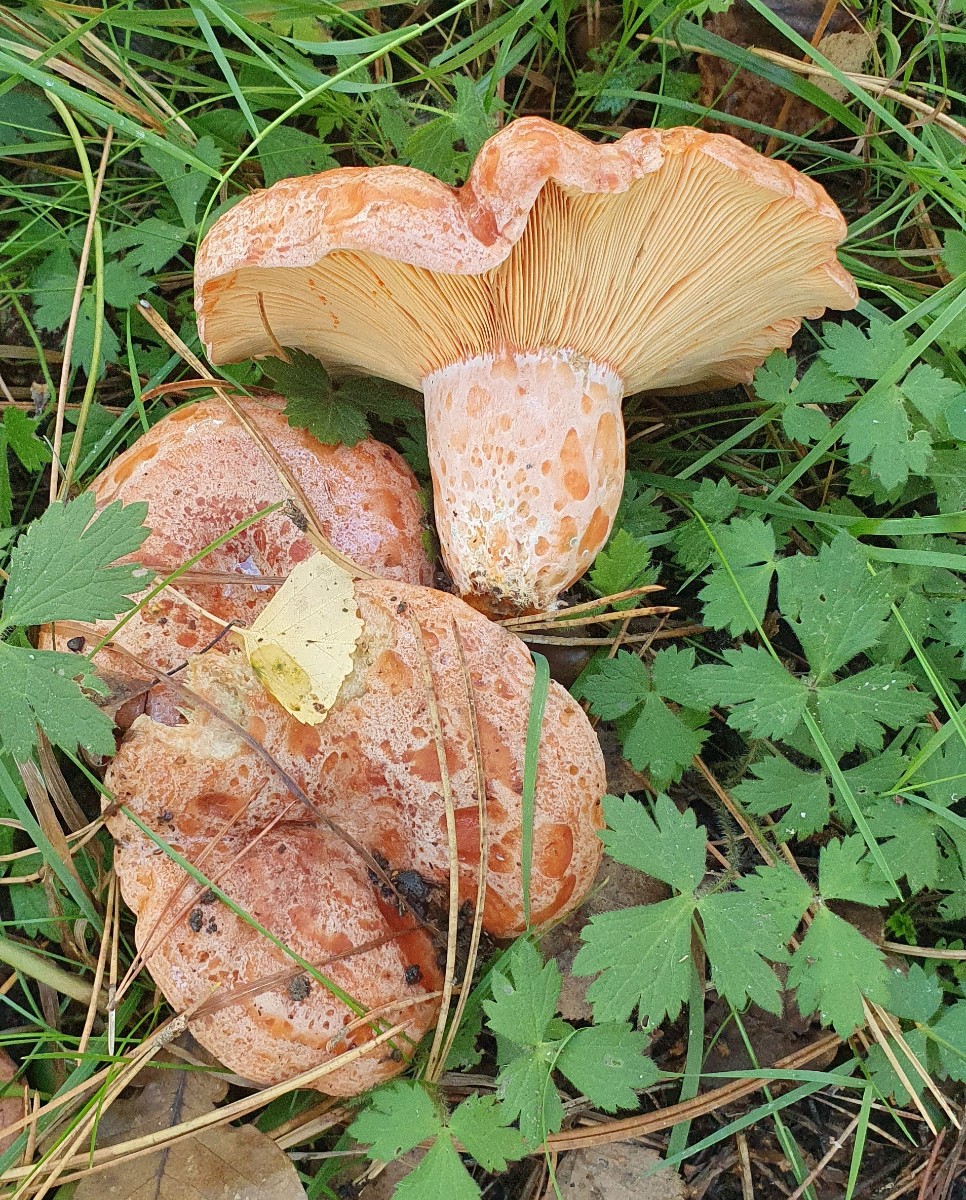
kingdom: Fungi
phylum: Basidiomycota
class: Agaricomycetes
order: Russulales
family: Russulaceae
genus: Lactarius
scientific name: Lactarius deliciosus
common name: velsmagende mælkehat
